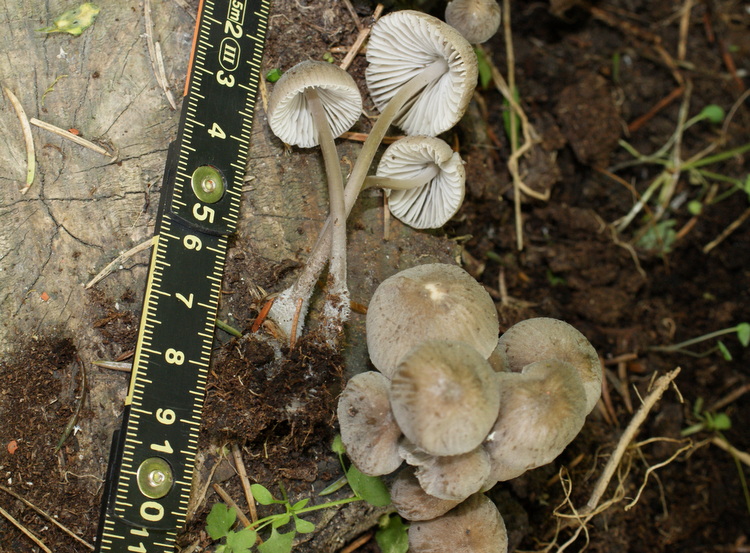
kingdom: Fungi
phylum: Basidiomycota
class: Agaricomycetes
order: Agaricales
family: Mycenaceae
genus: Mycena
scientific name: Mycena abramsii
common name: sommer-huesvamp
